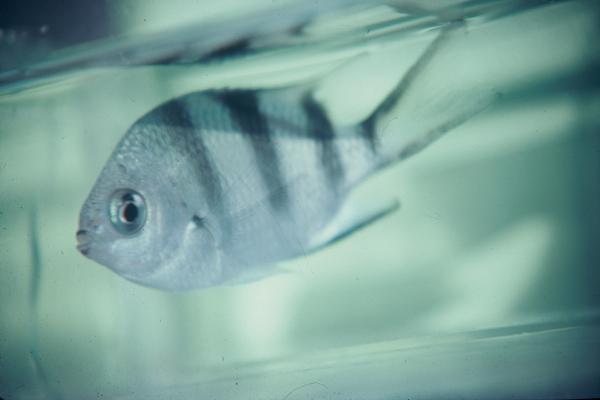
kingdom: Animalia
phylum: Chordata
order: Perciformes
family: Pomacentridae
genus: Abudefduf
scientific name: Abudefduf natalensis
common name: Natal sergeant
